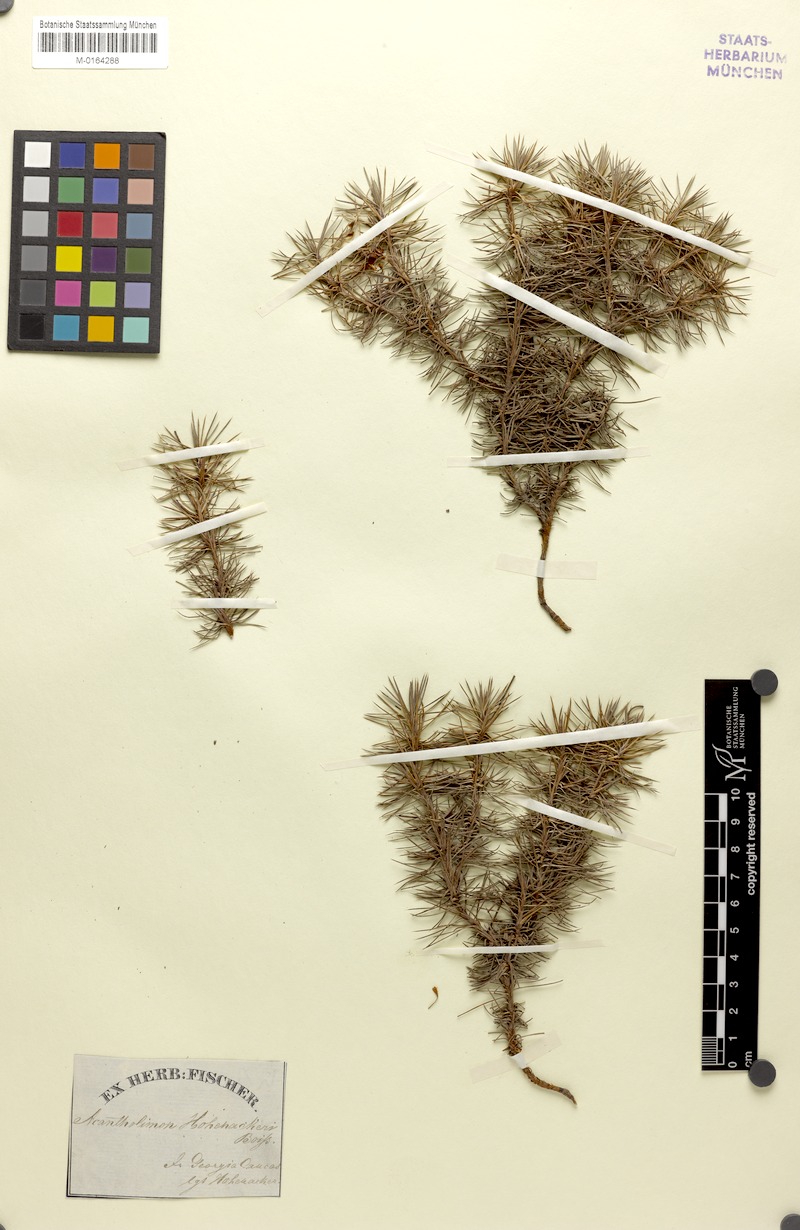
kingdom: Plantae
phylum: Tracheophyta
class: Magnoliopsida
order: Caryophyllales
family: Plumbaginaceae
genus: Acantholimon
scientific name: Acantholimon hohenackeri
